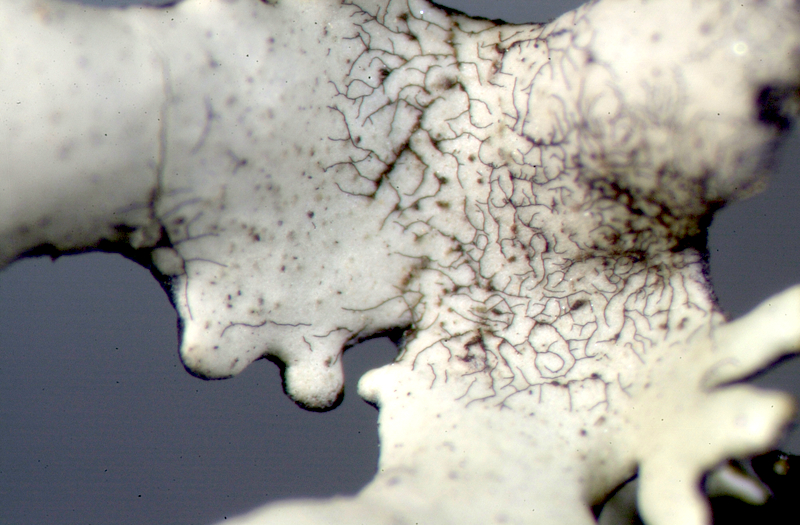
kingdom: Fungi
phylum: Ascomycota
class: Lecanoromycetes
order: Teloschistales
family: Teloschistaceae
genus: Caloplaca
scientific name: Caloplaca
